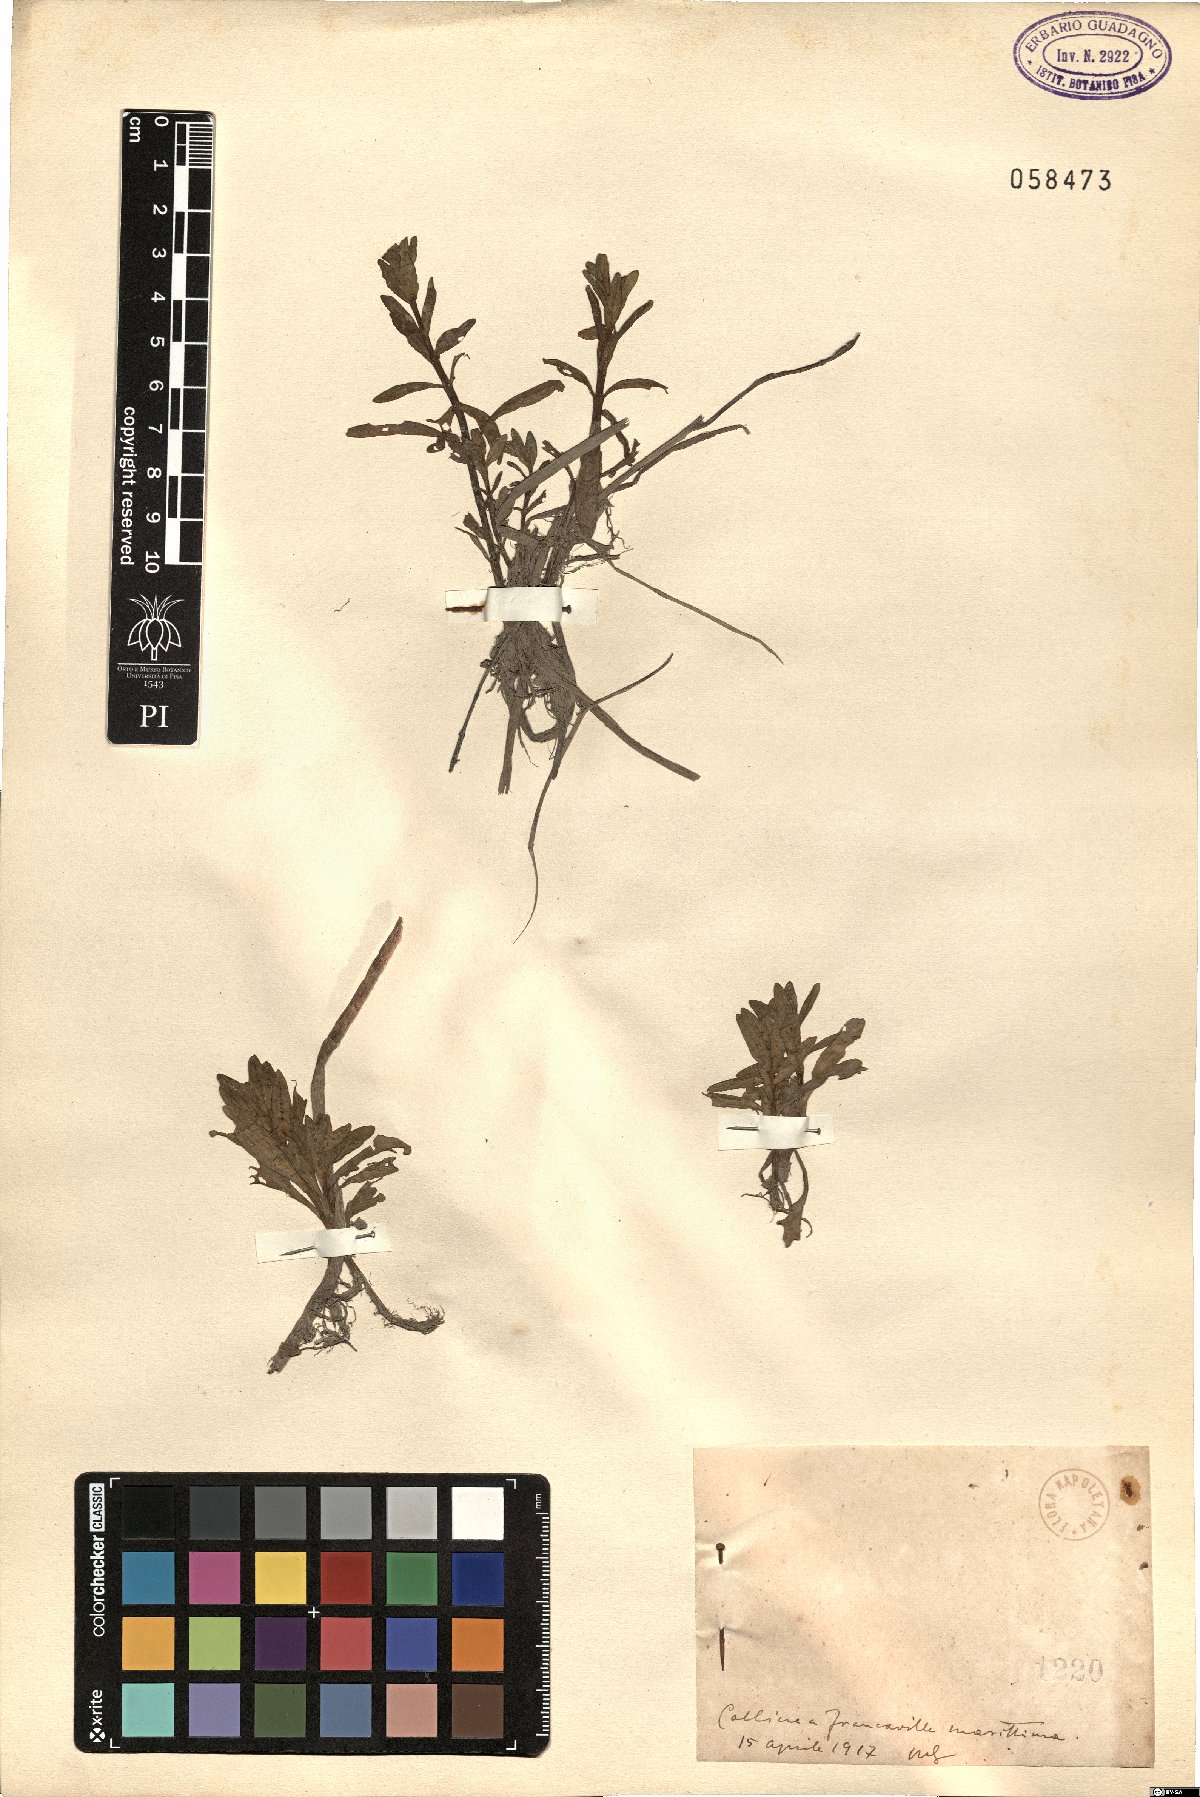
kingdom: Plantae
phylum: Tracheophyta
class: Magnoliopsida
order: Lamiales
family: Plantaginaceae
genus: Veronica
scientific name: Veronica
